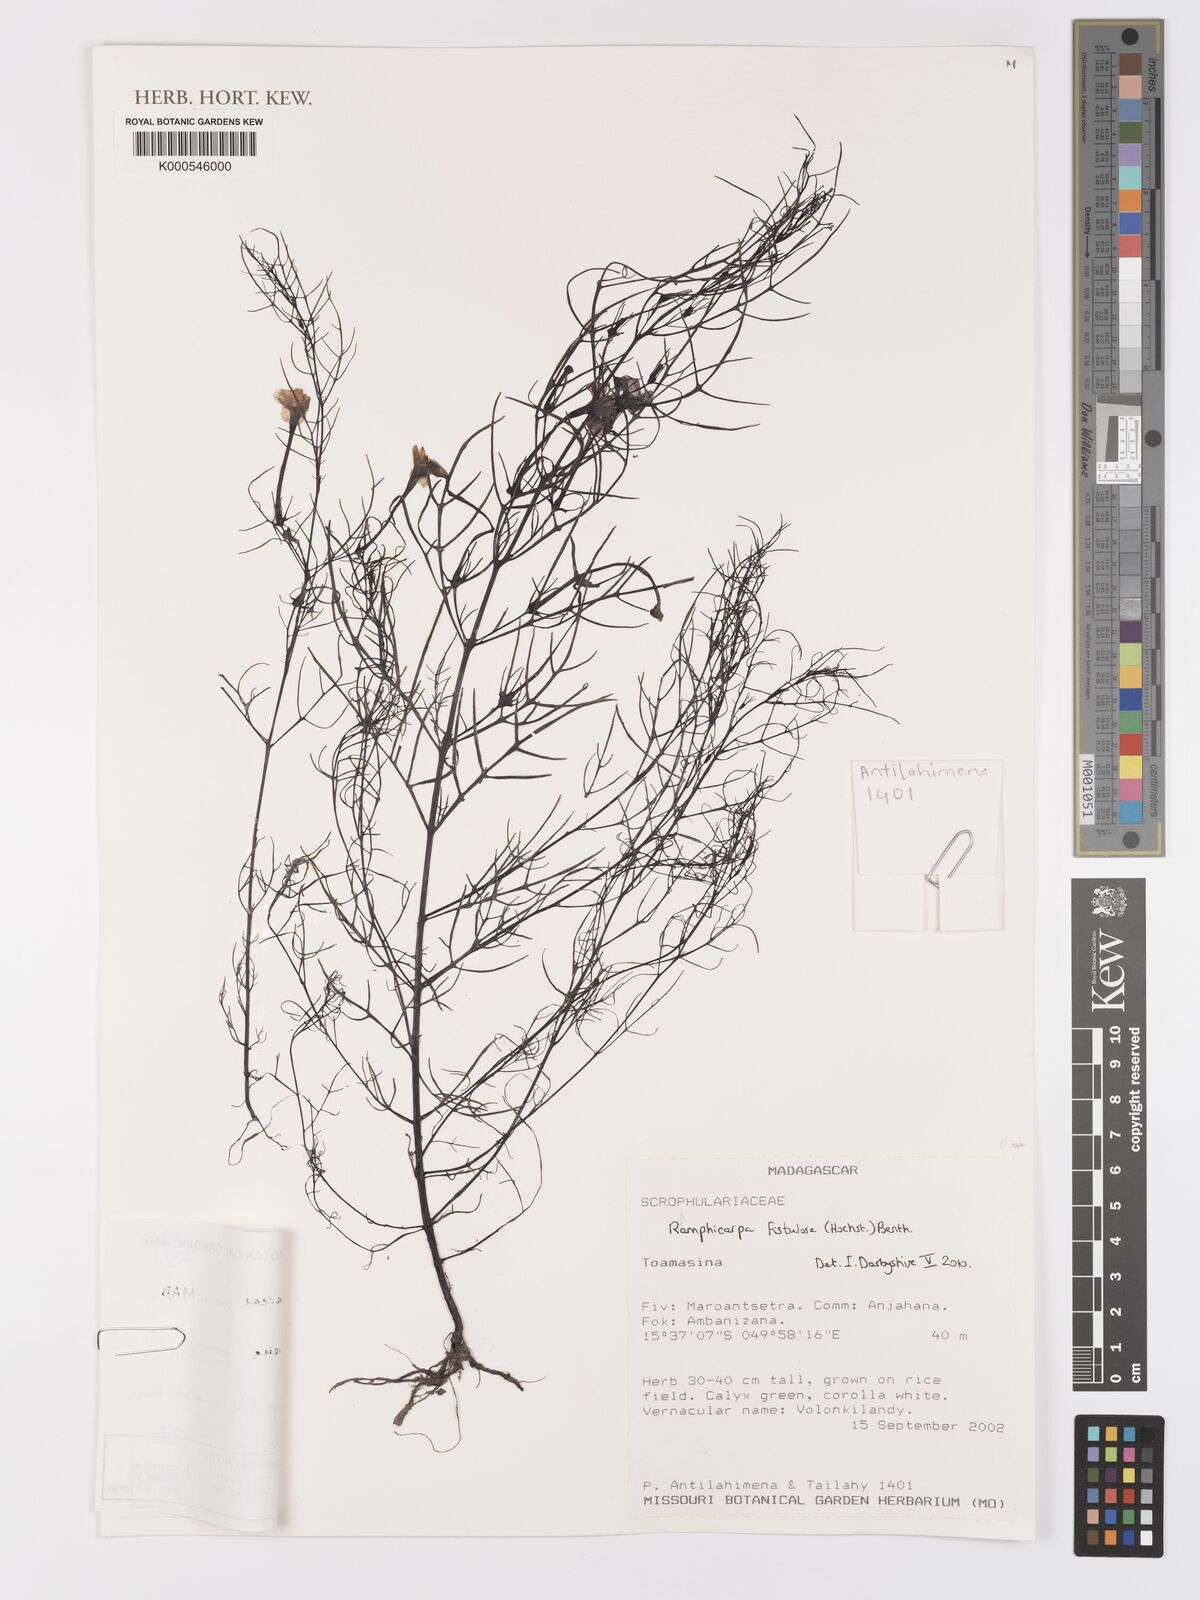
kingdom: Plantae
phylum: Tracheophyta
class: Magnoliopsida
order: Lamiales
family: Scrophulariaceae
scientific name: Scrophulariaceae
